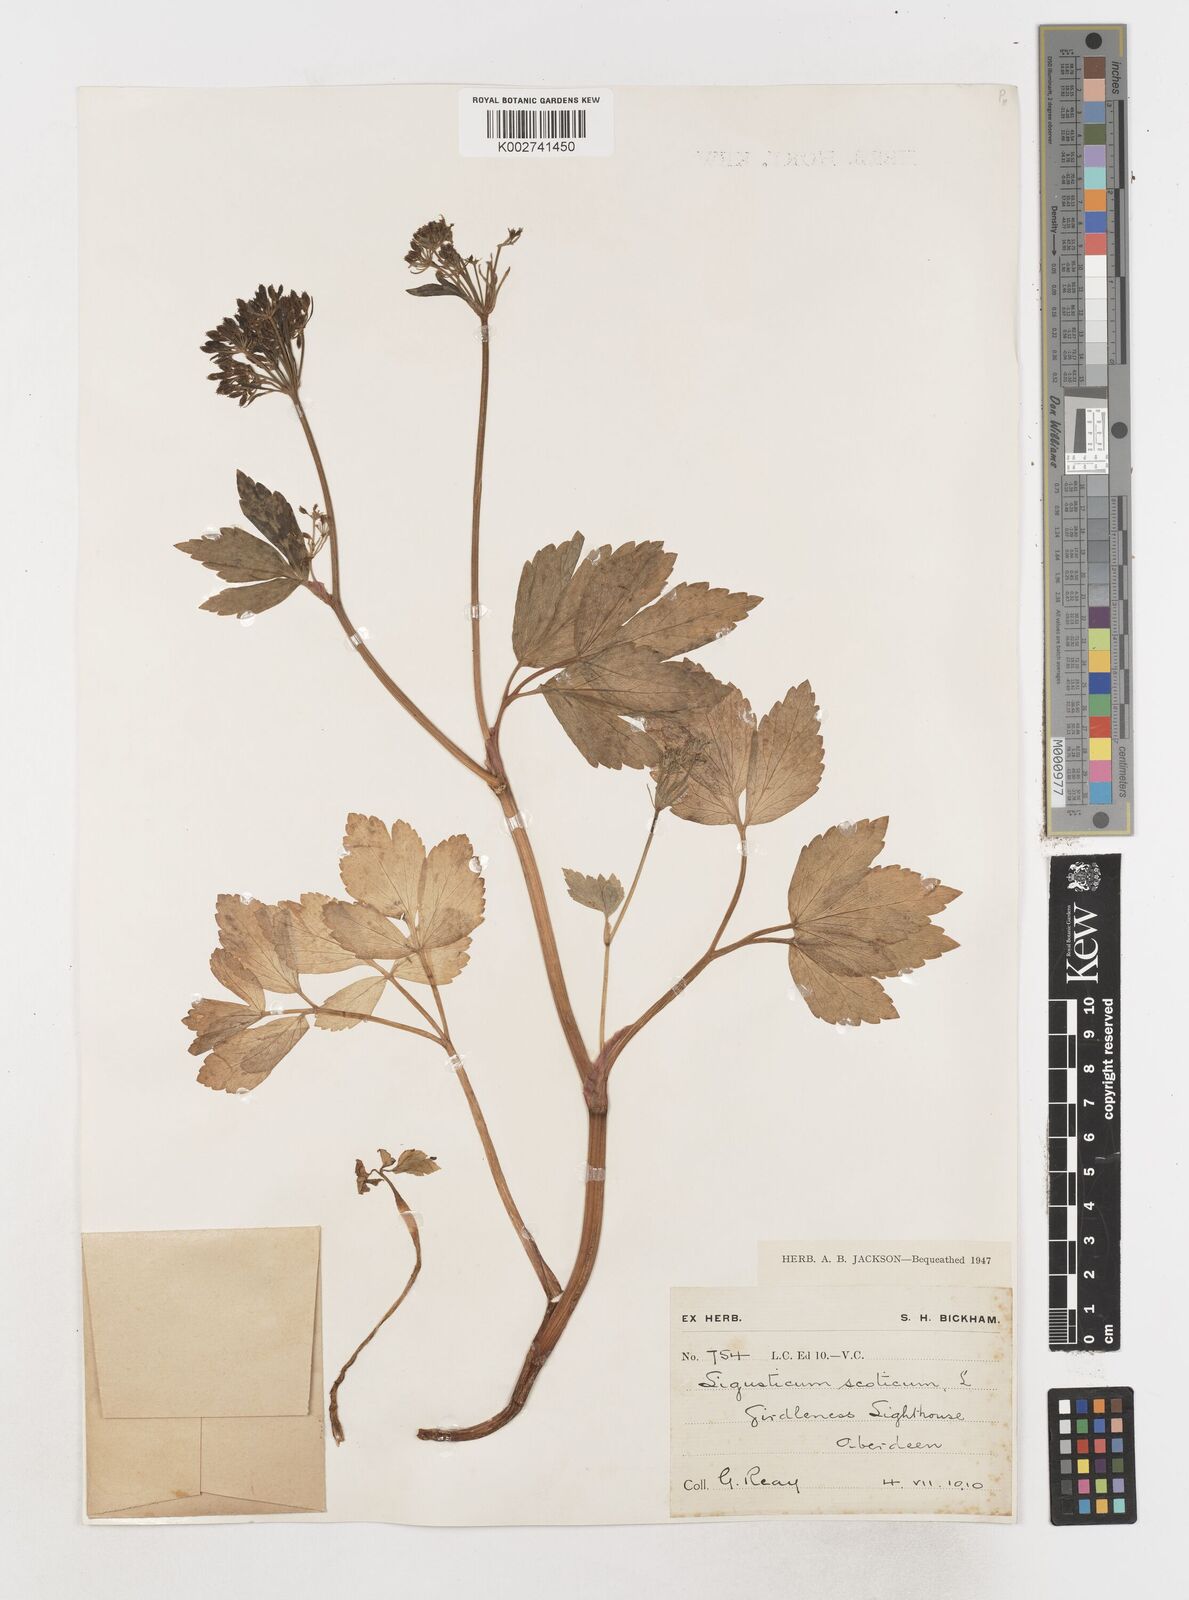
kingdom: Plantae
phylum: Tracheophyta
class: Magnoliopsida
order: Apiales
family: Apiaceae
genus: Ligusticum
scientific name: Ligusticum scothicum
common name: Beach lovage
